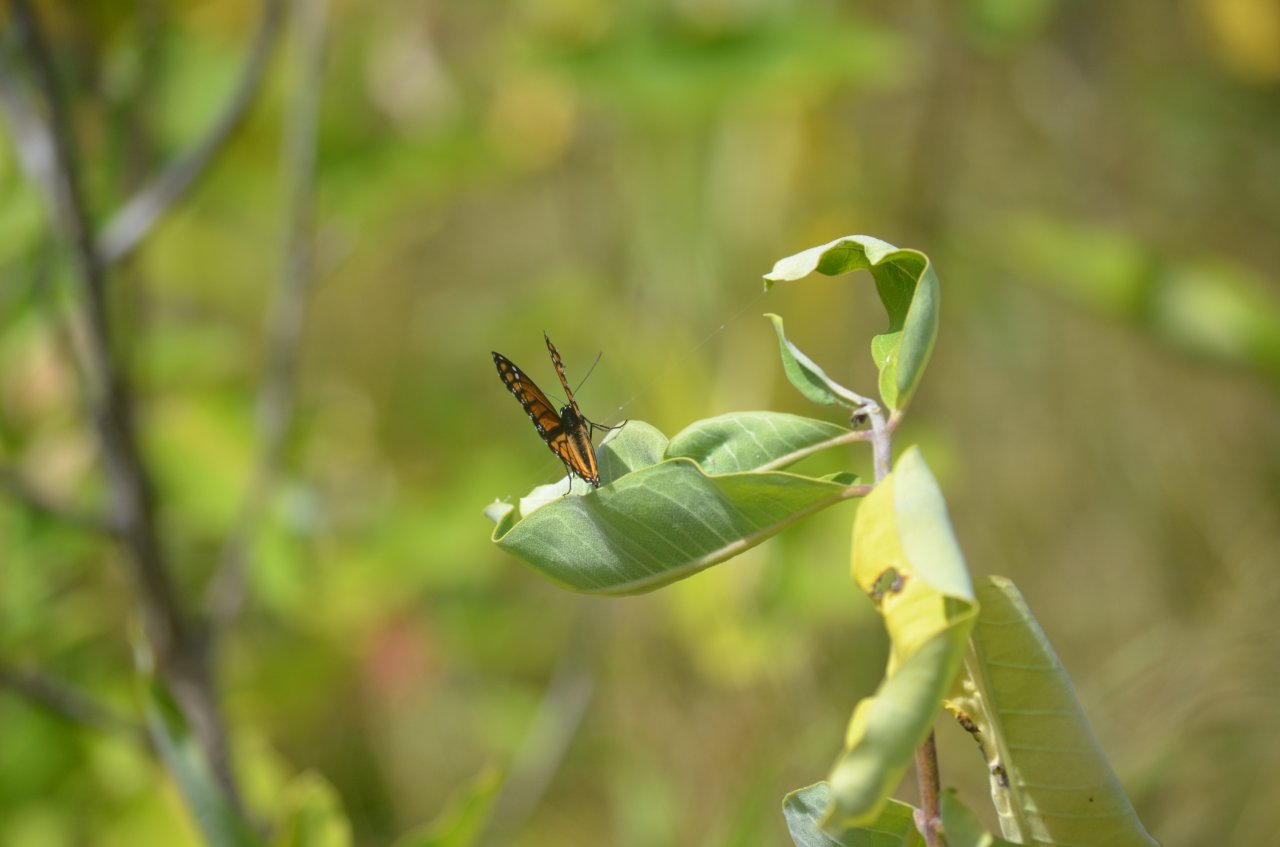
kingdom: Animalia
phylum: Arthropoda
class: Insecta
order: Lepidoptera
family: Nymphalidae
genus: Limenitis
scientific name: Limenitis archippus
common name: Viceroy
